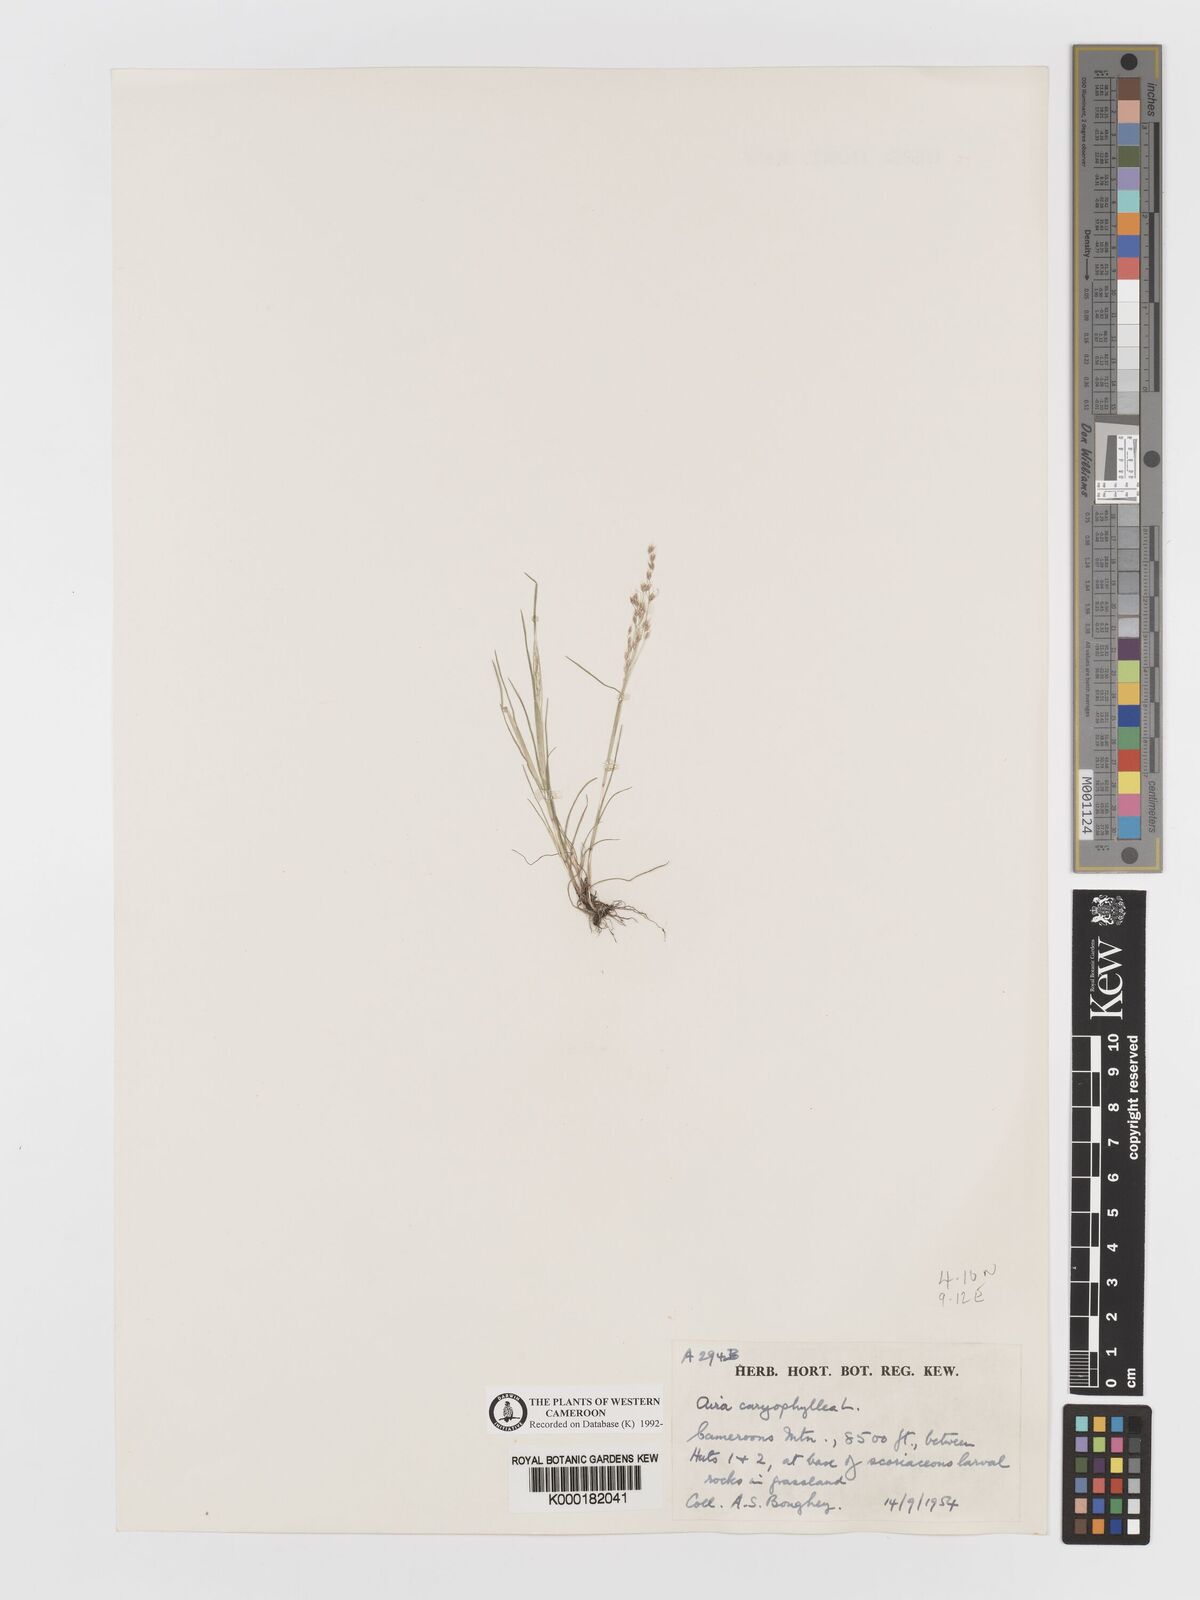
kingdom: Plantae
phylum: Tracheophyta
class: Liliopsida
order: Poales
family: Poaceae
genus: Aira
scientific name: Aira caryophyllea
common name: Silver hairgrass
